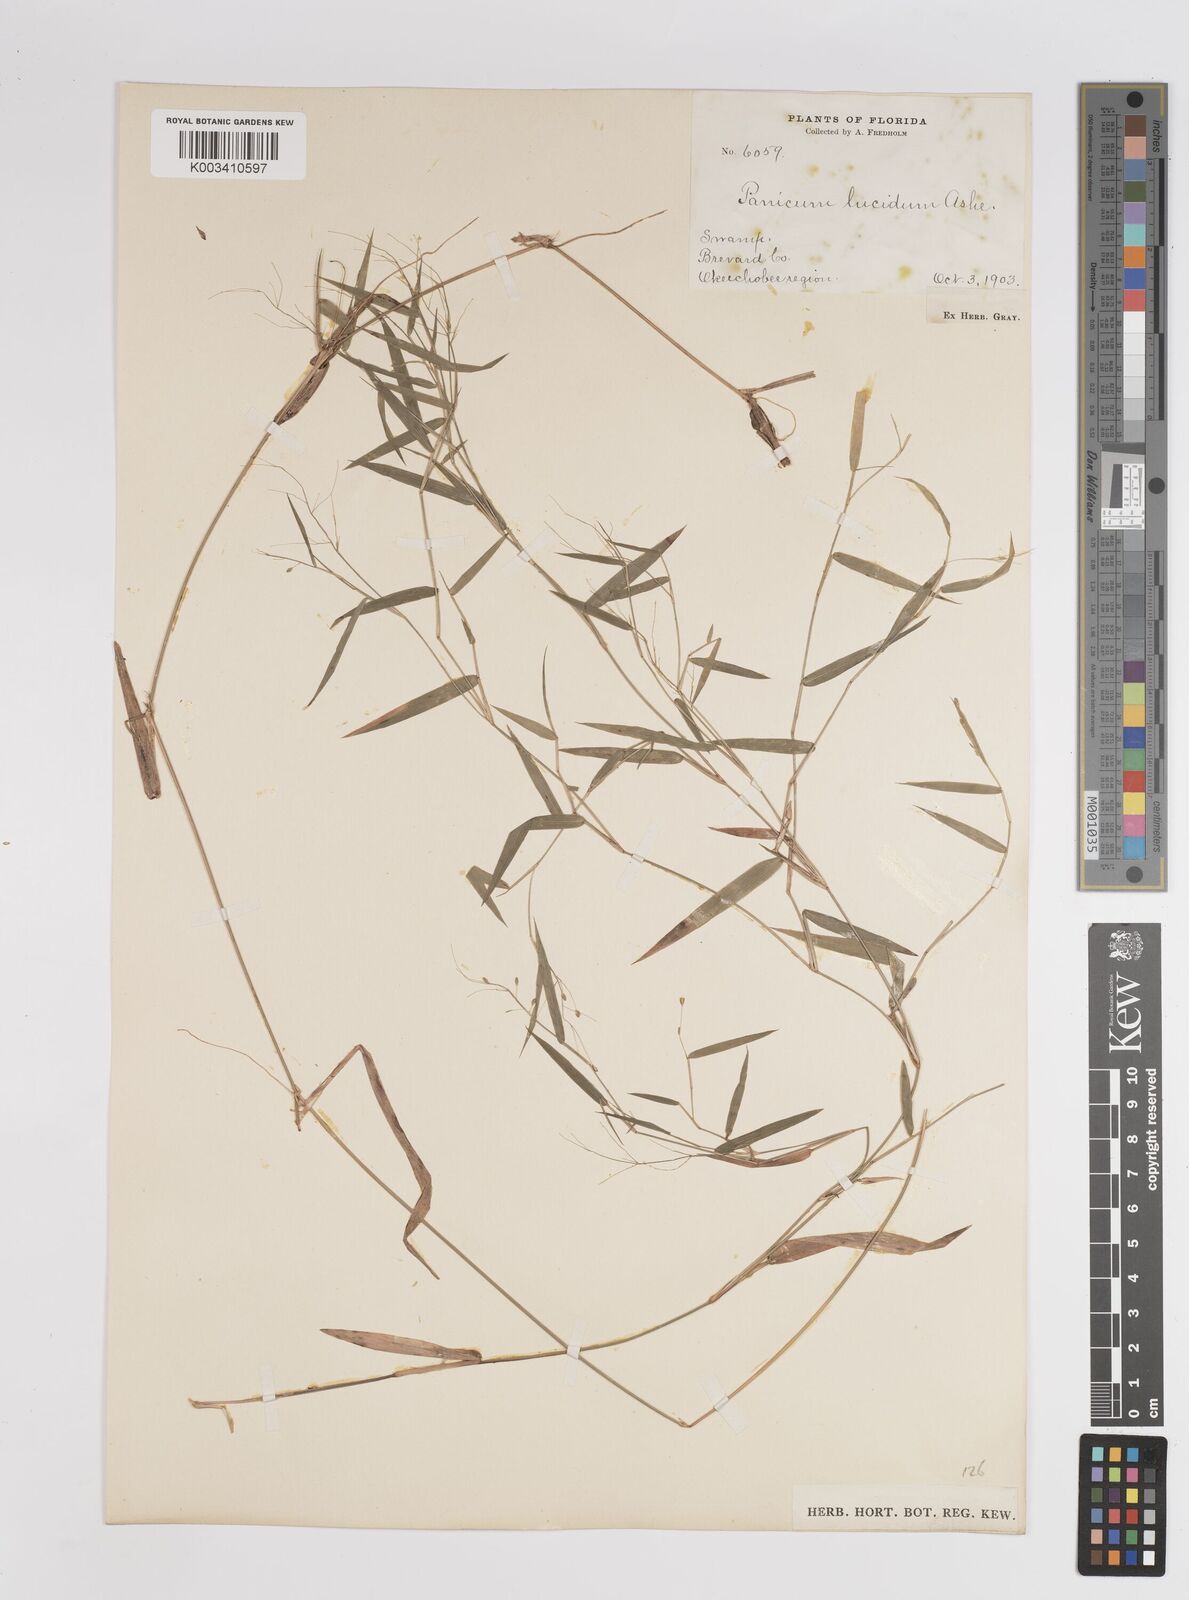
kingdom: Plantae
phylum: Tracheophyta
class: Liliopsida
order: Poales
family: Poaceae
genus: Dichanthelium
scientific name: Dichanthelium lucidum
